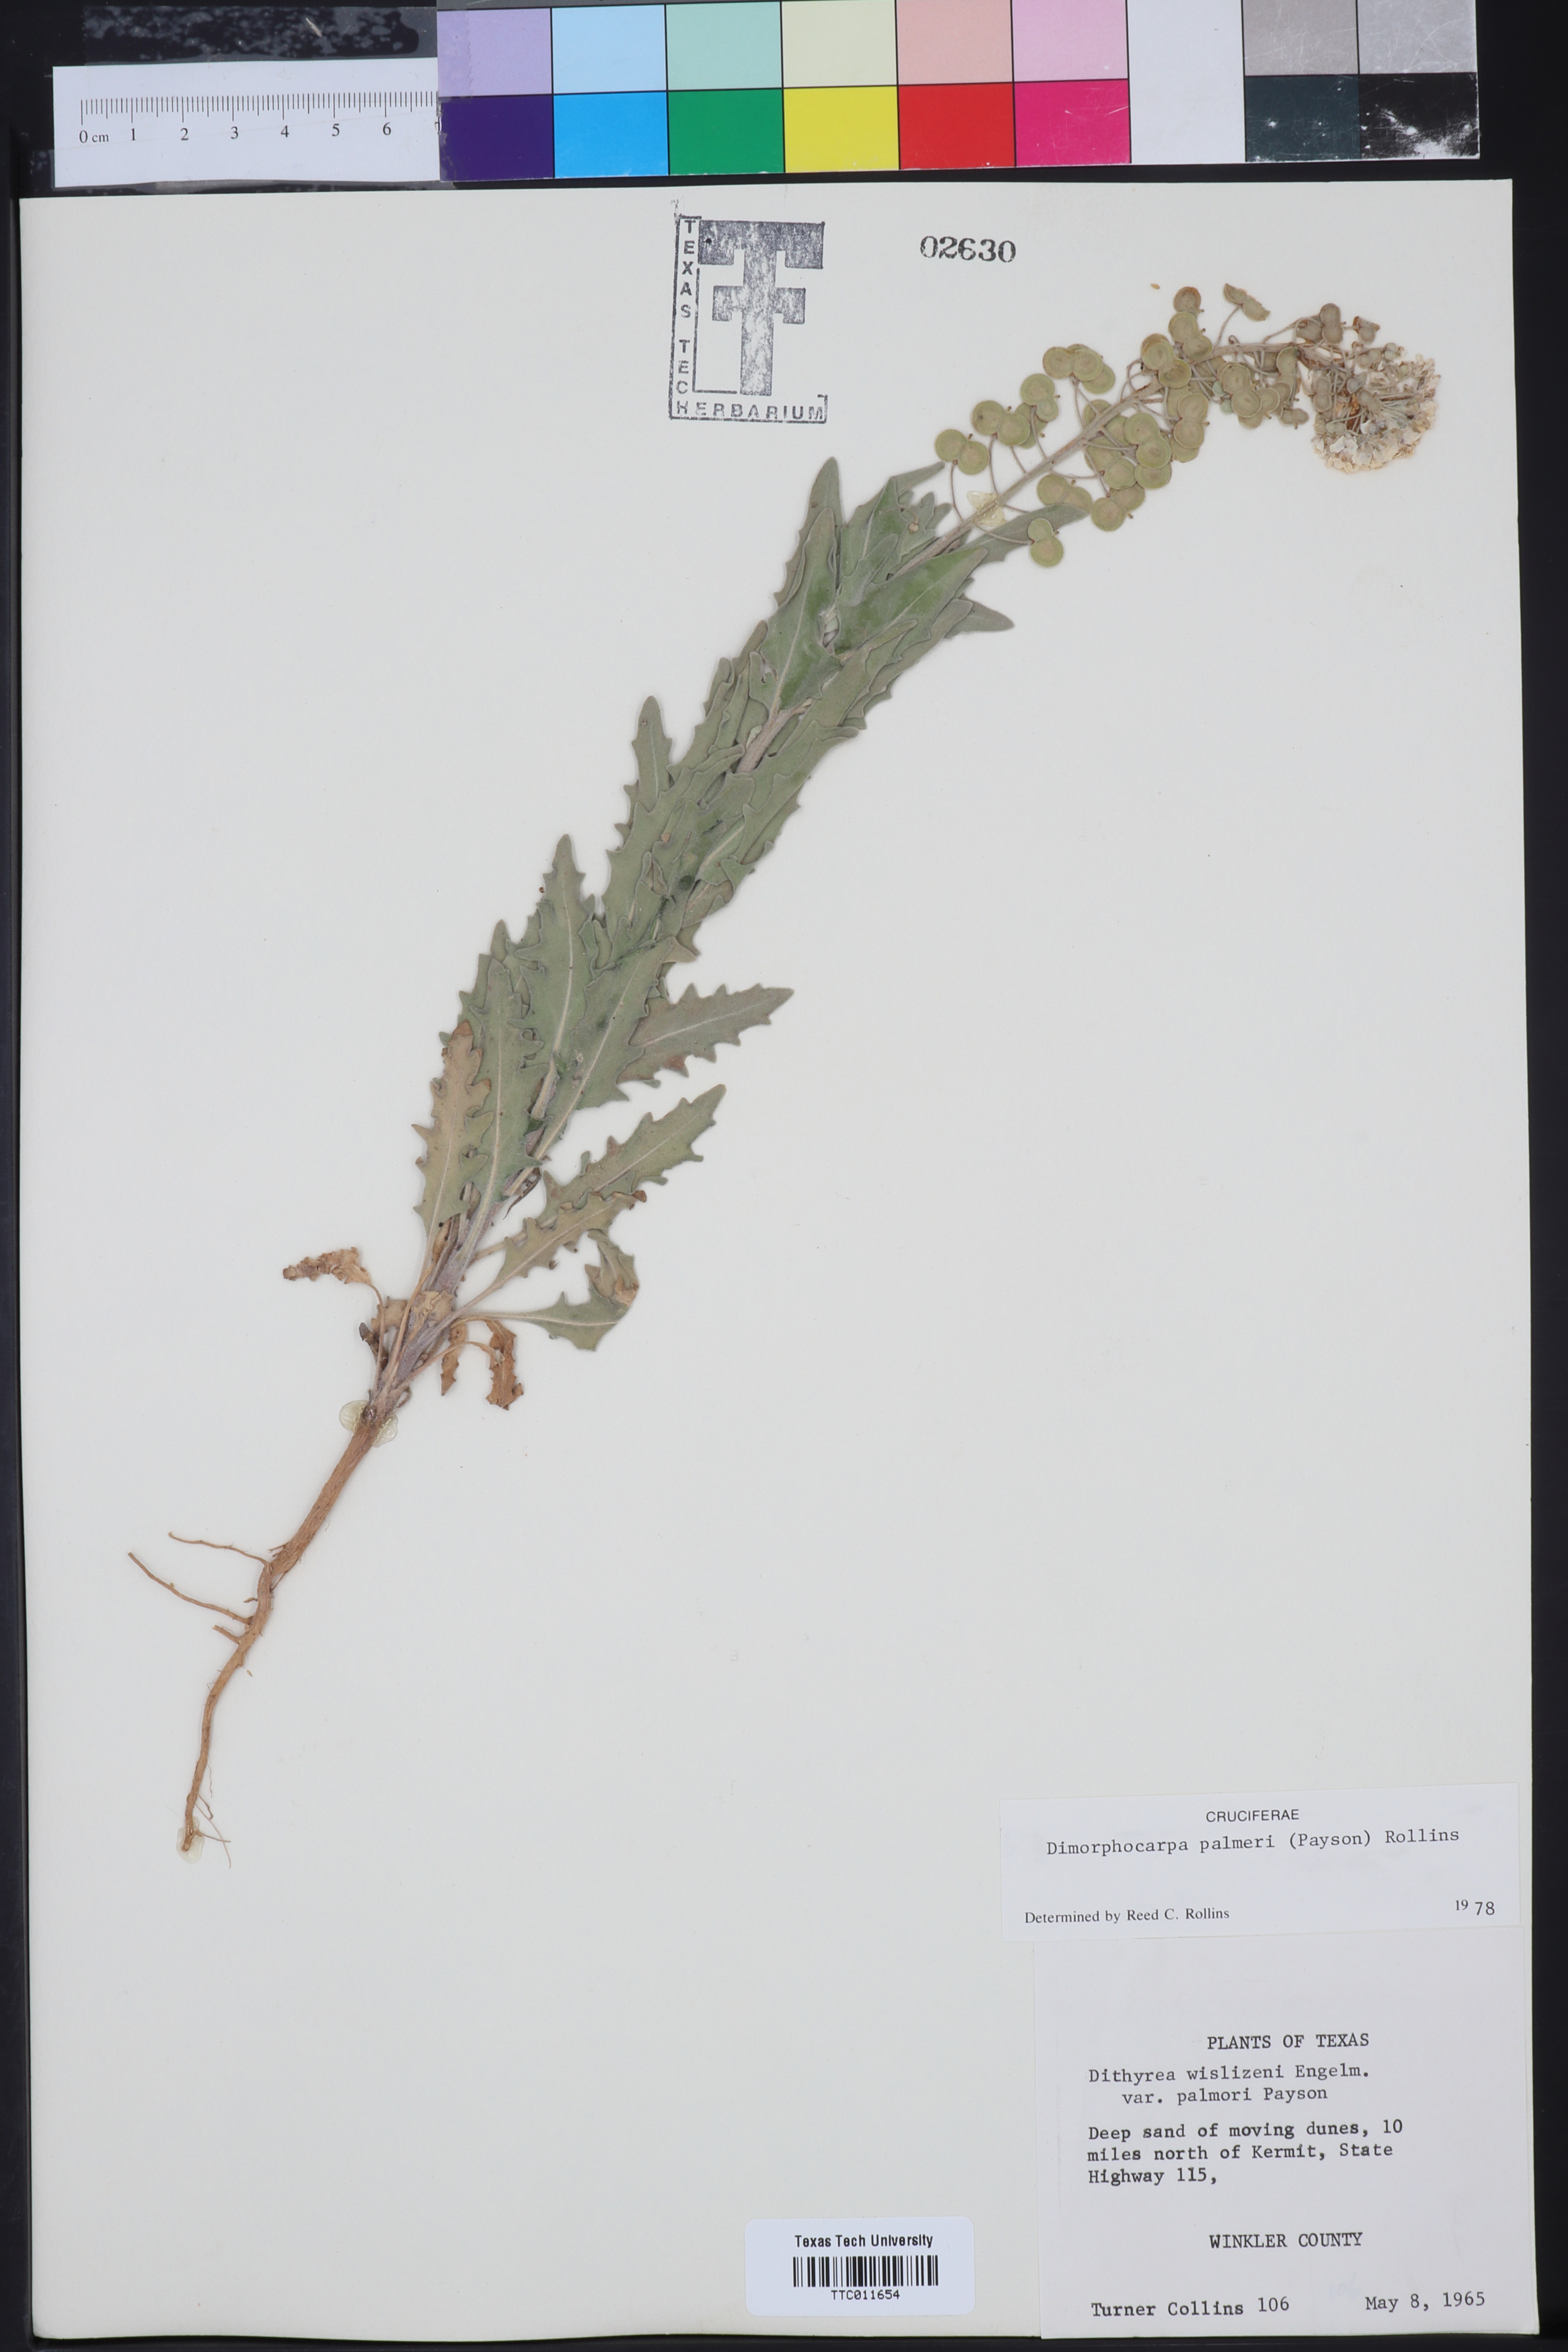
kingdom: Plantae
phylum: Tracheophyta
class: Magnoliopsida
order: Brassicales
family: Brassicaceae
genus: Dimorphocarpa
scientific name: Dimorphocarpa candicans
